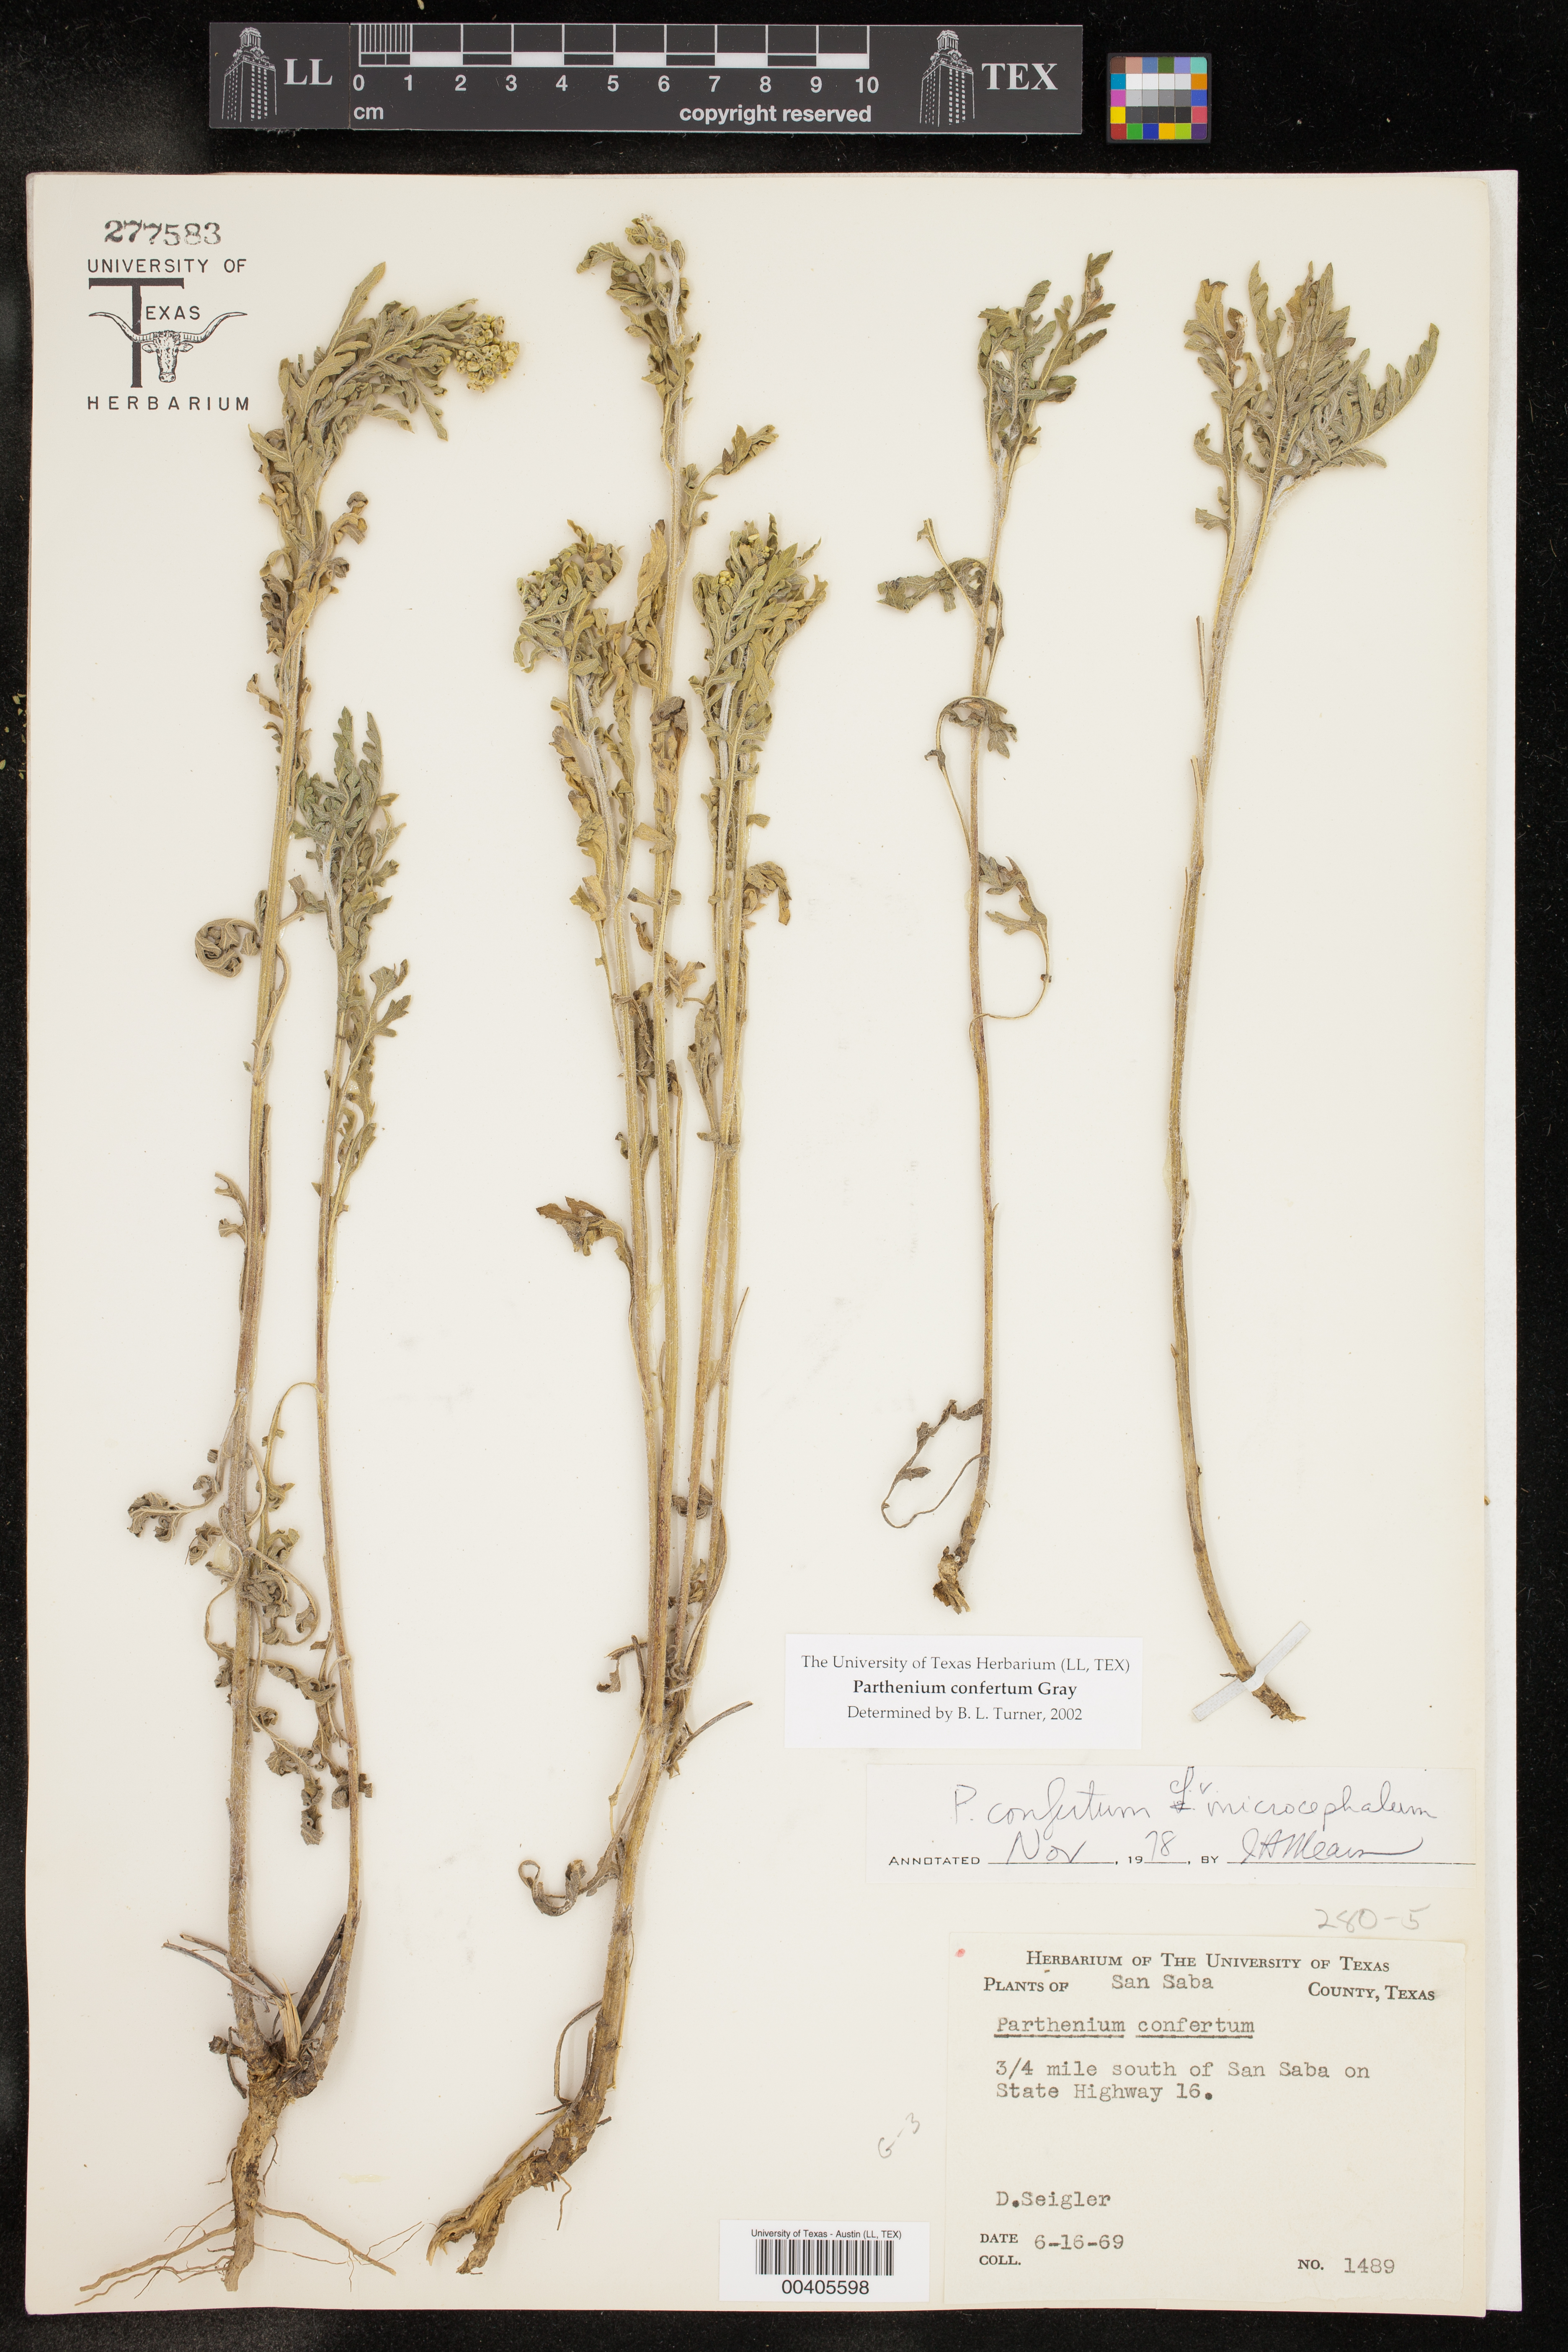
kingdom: Plantae
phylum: Tracheophyta
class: Magnoliopsida
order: Asterales
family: Asteraceae
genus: Parthenium
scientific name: Parthenium confertum
